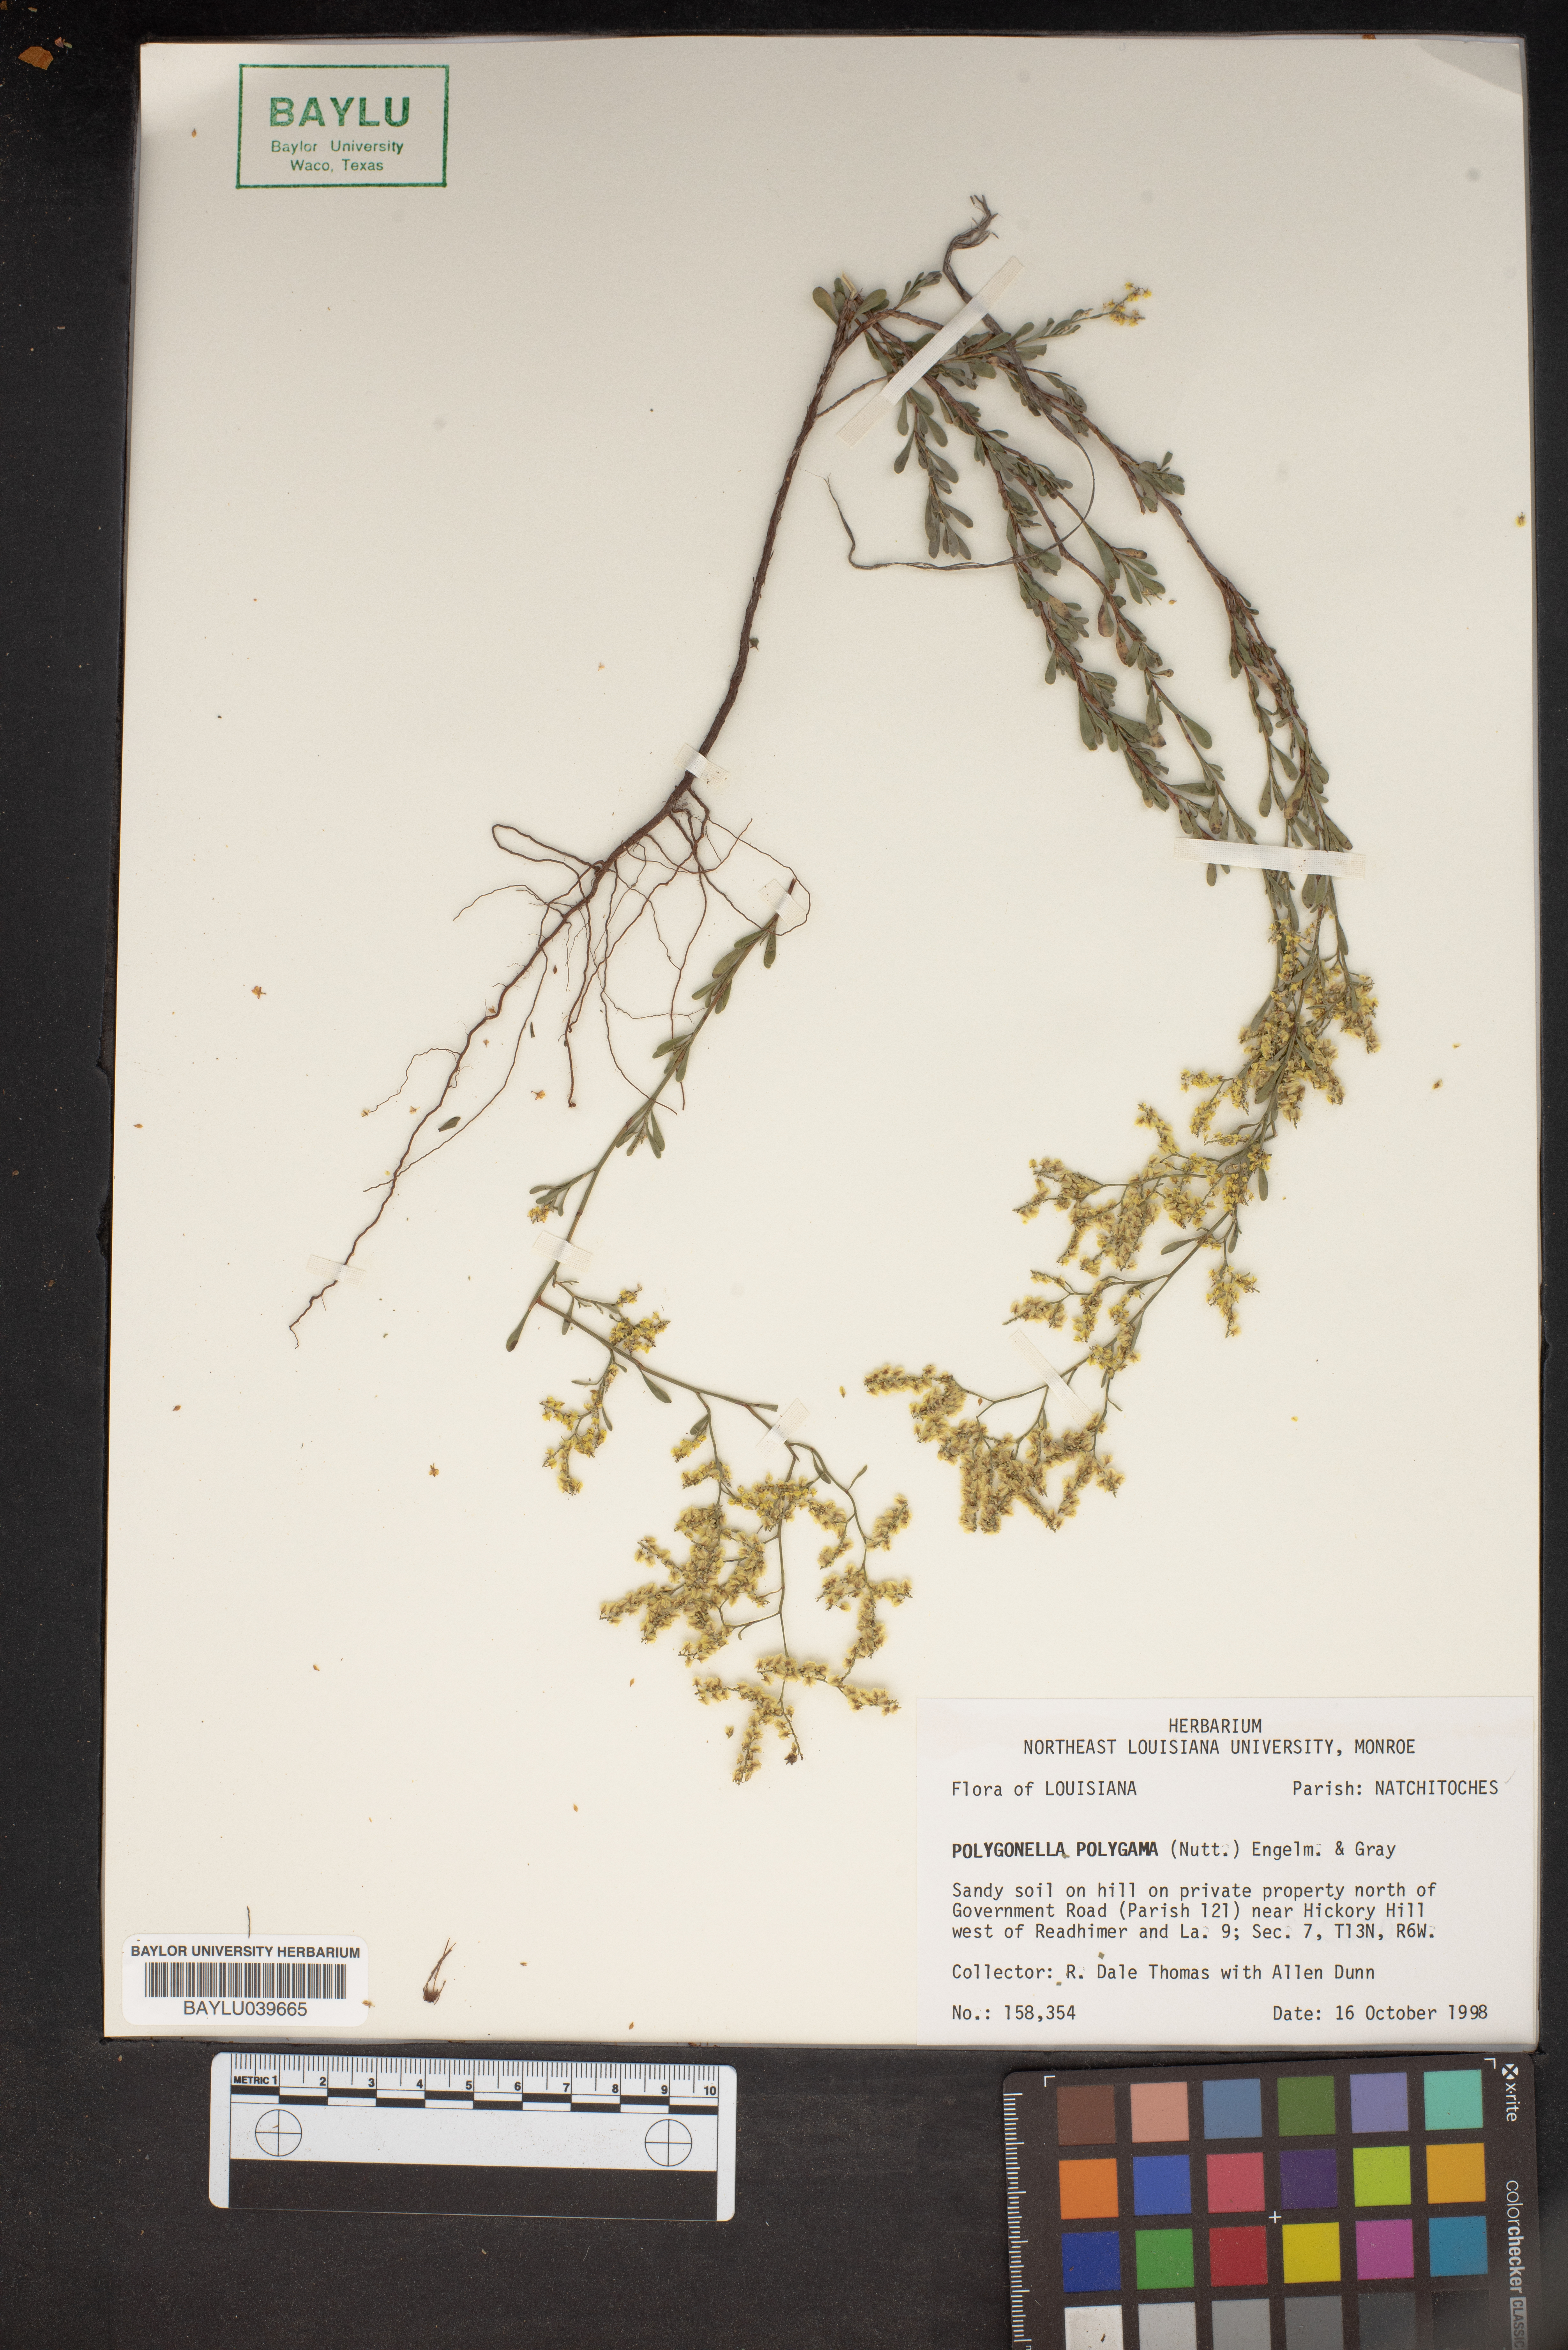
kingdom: Plantae
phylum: Tracheophyta
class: Magnoliopsida
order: Caryophyllales
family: Polygonaceae
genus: Polygonella
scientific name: Polygonella polygama
